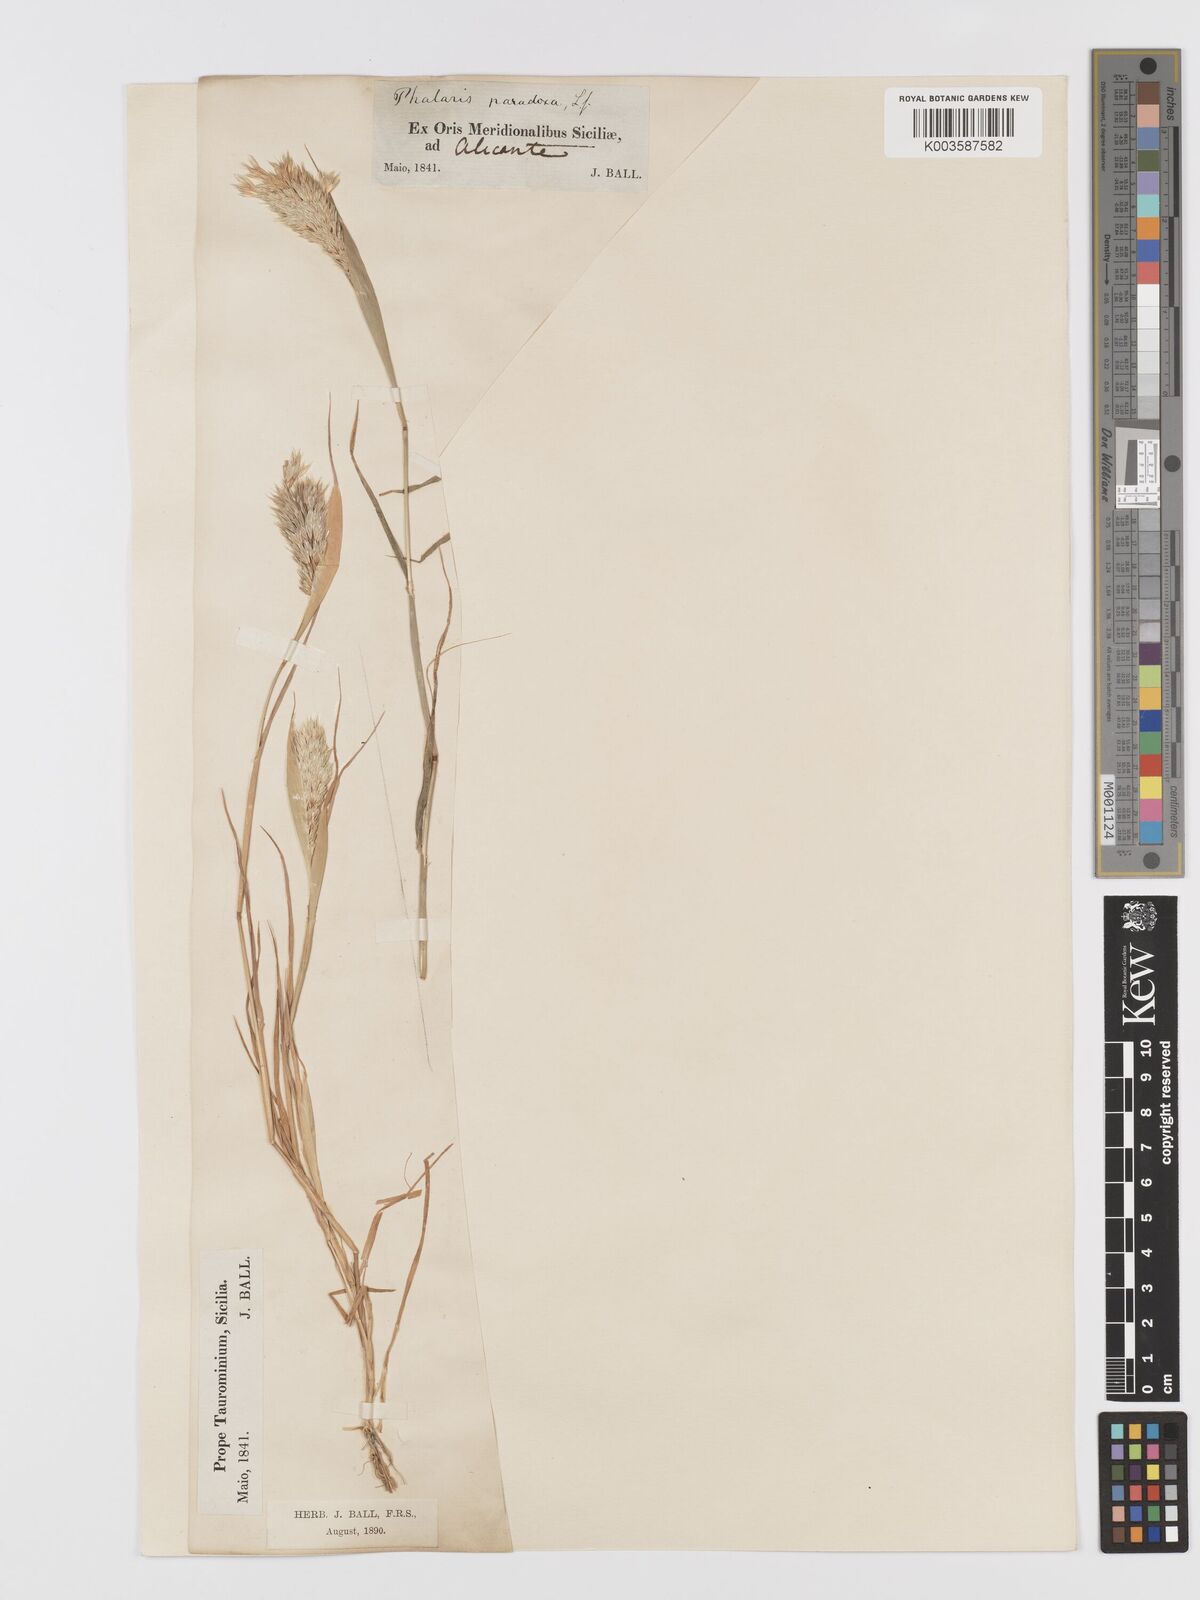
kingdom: Plantae
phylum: Tracheophyta
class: Liliopsida
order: Poales
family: Poaceae
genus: Phalaris
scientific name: Phalaris paradoxa
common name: Awned canary-grass
